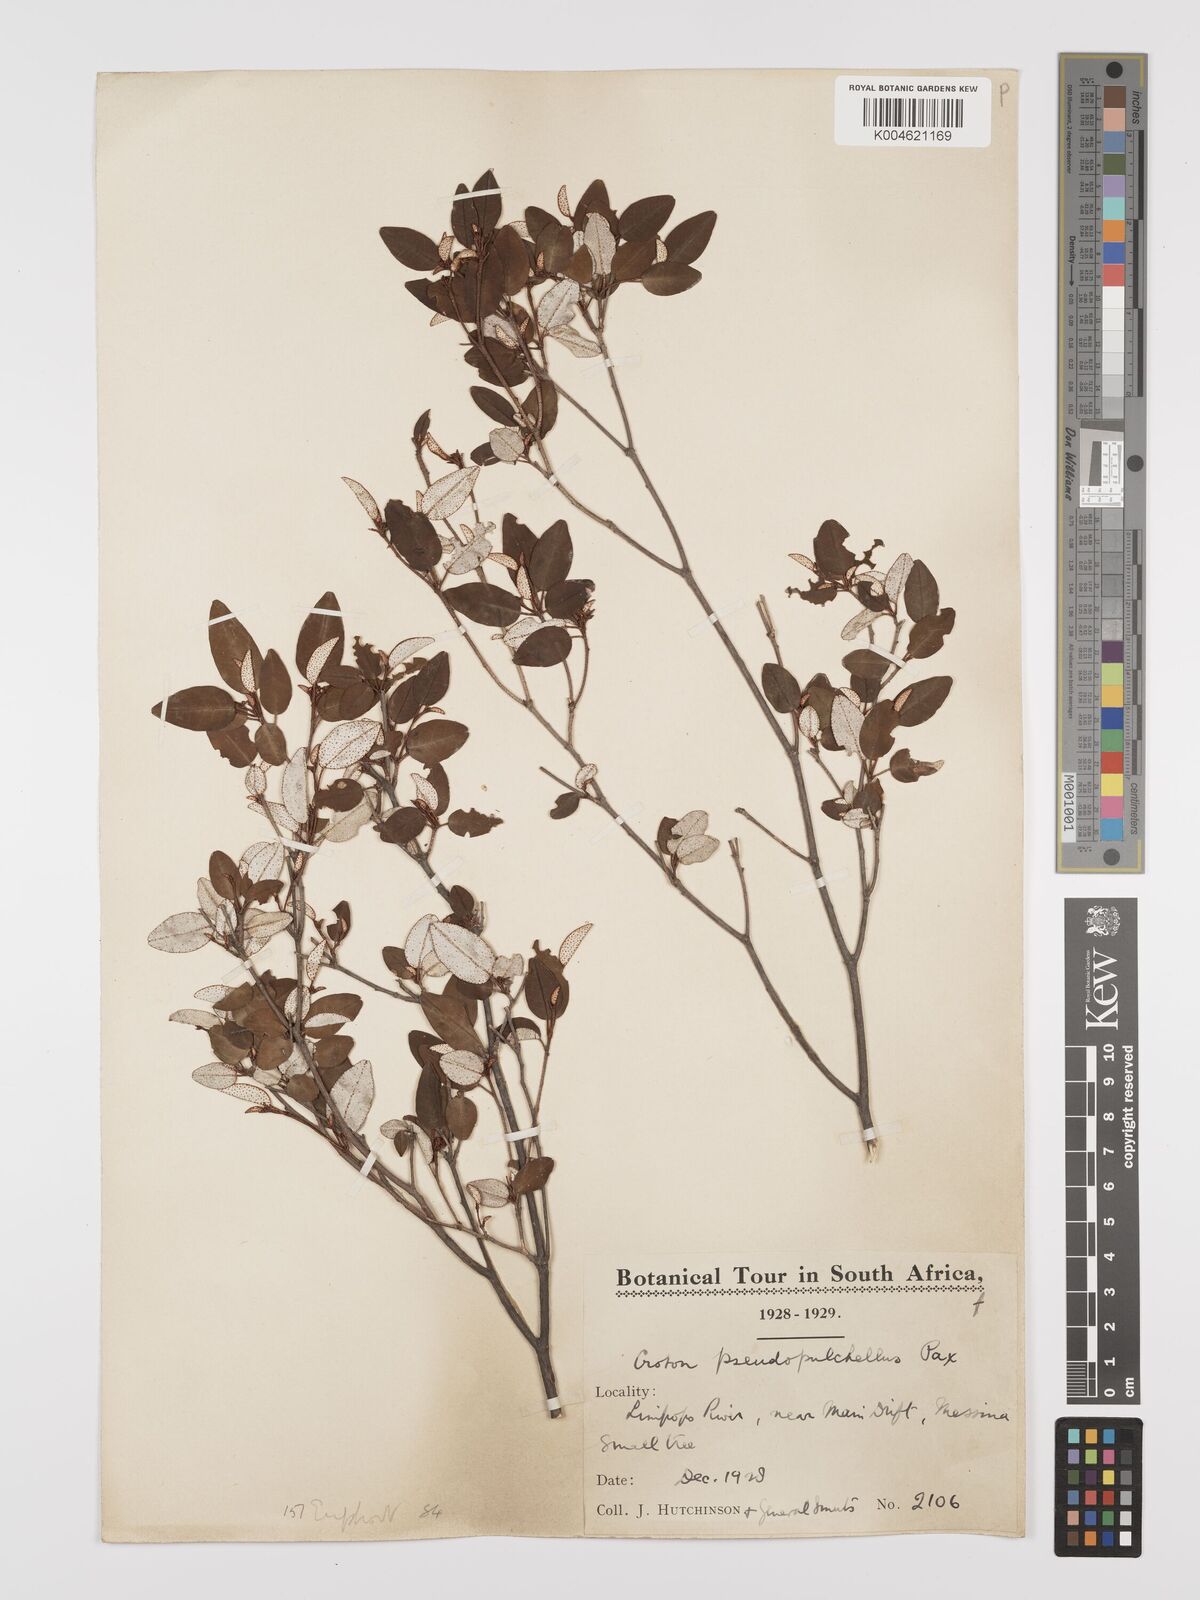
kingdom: Plantae
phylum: Tracheophyta
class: Magnoliopsida
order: Malpighiales
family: Euphorbiaceae
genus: Croton
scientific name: Croton pseudopulchellus
